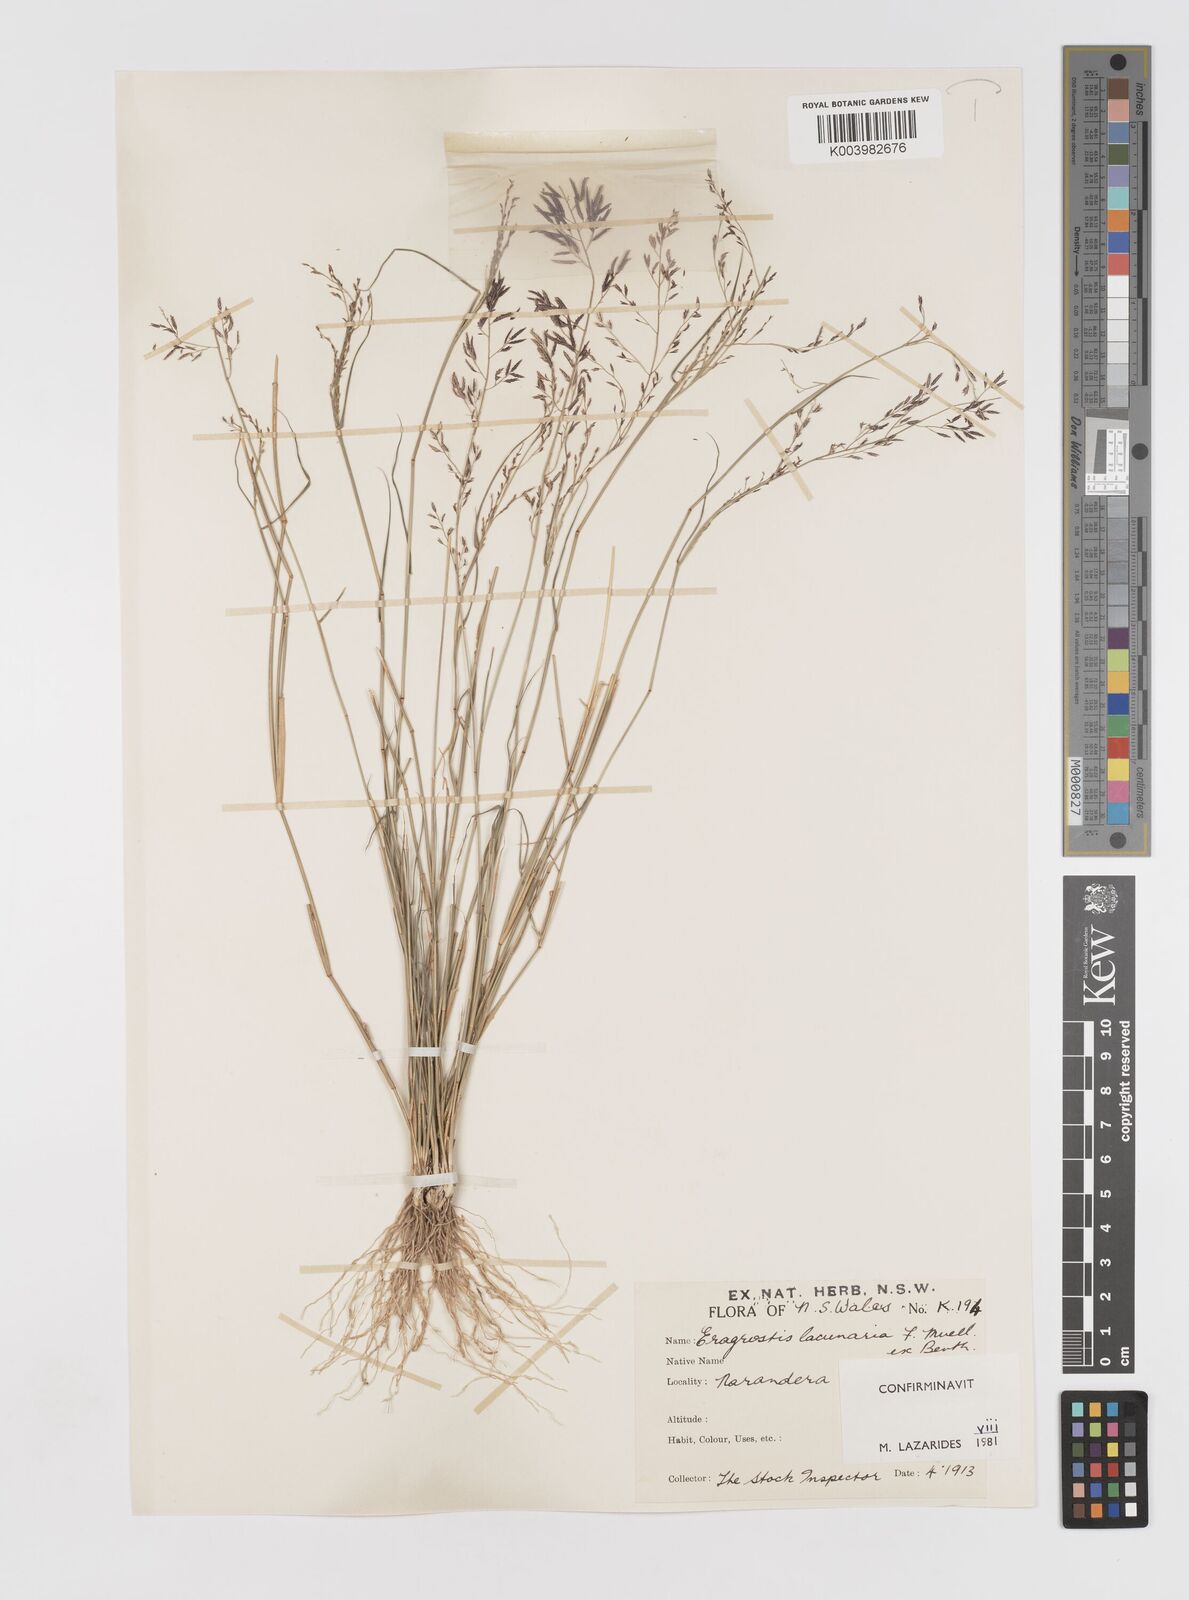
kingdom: Plantae
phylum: Tracheophyta
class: Liliopsida
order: Poales
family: Poaceae
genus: Eragrostis
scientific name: Eragrostis lacunaria
